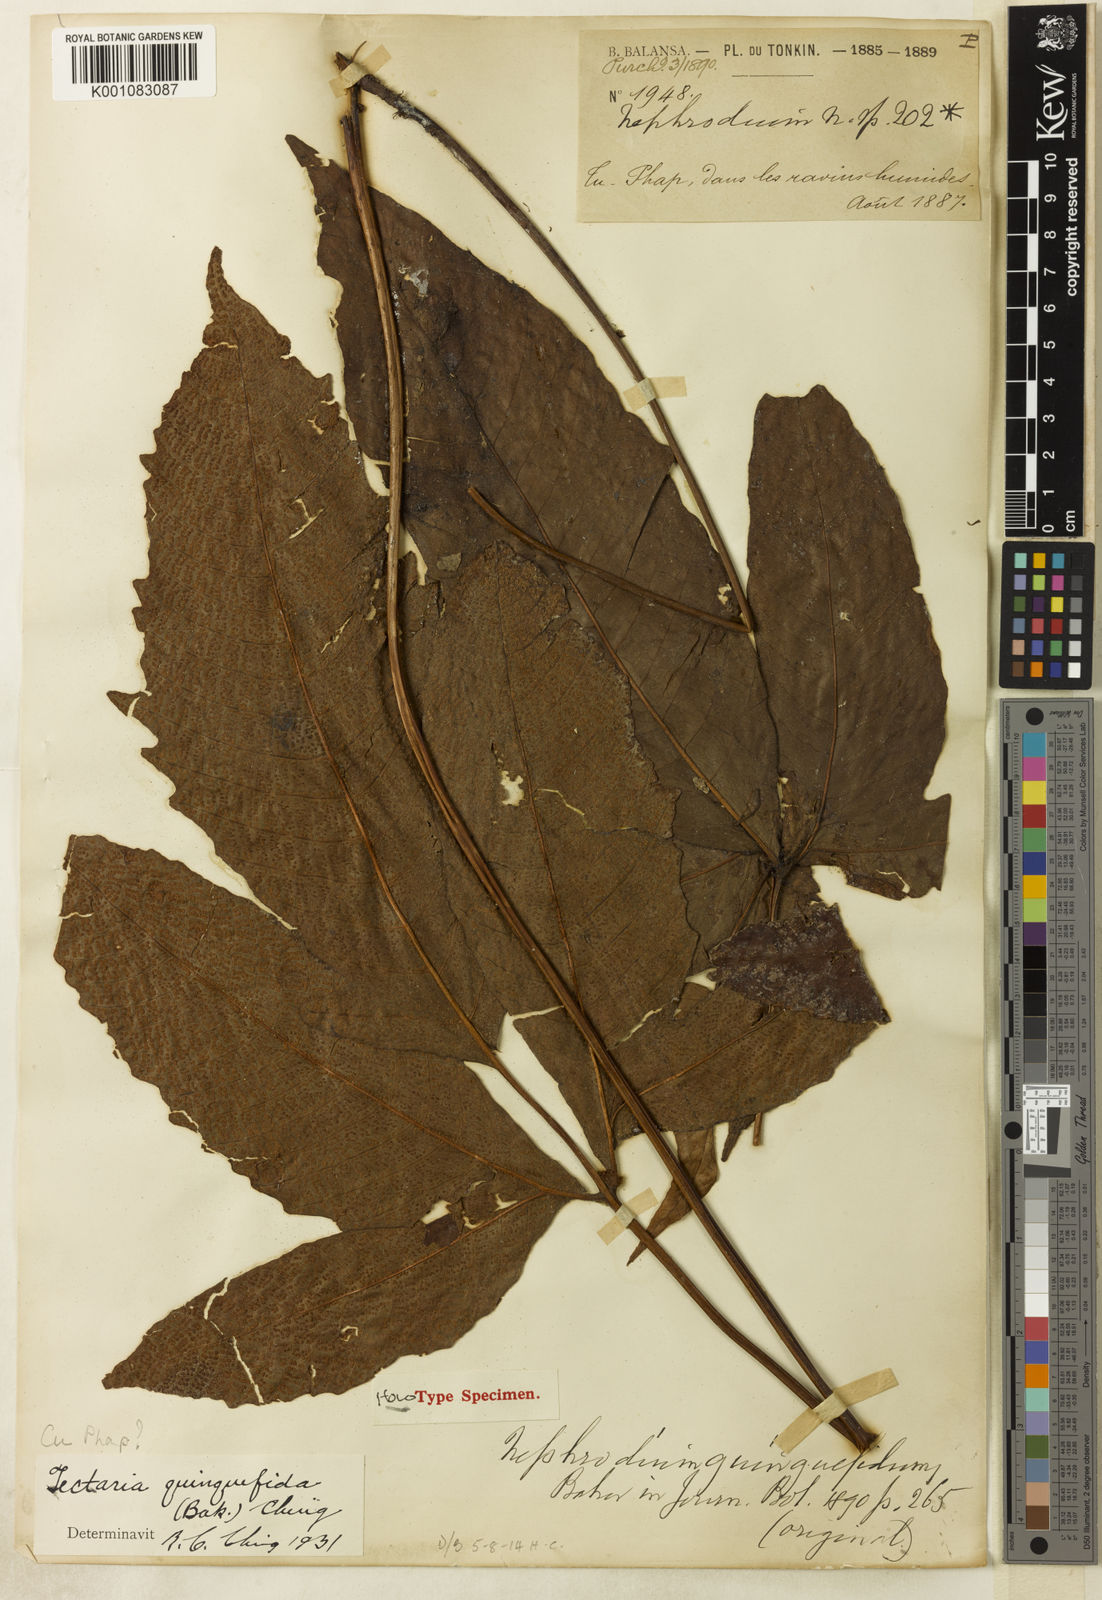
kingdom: Plantae
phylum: Tracheophyta
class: Polypodiopsida
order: Polypodiales
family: Tectariaceae
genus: Tectaria
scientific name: Tectaria quinquefida
